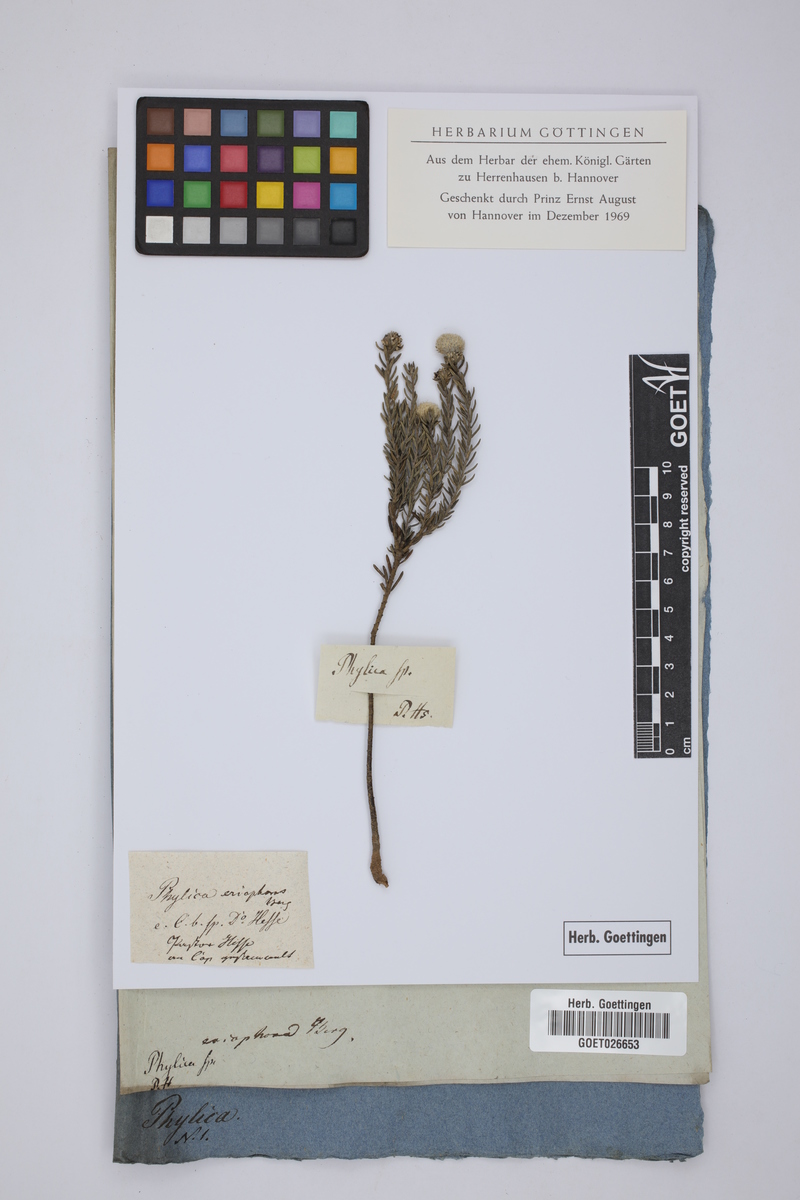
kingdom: Plantae
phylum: Tracheophyta
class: Magnoliopsida
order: Rosales
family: Rhamnaceae
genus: Phylica
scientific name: Phylica imberbis
